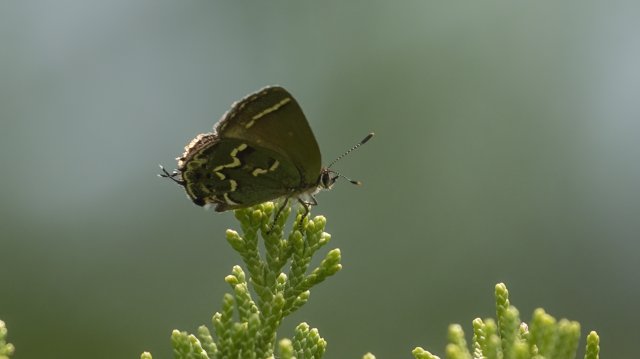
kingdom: Animalia
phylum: Arthropoda
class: Insecta
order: Lepidoptera
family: Lycaenidae
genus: Mitoura
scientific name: Mitoura gryneus
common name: Juniper Hairstreak
